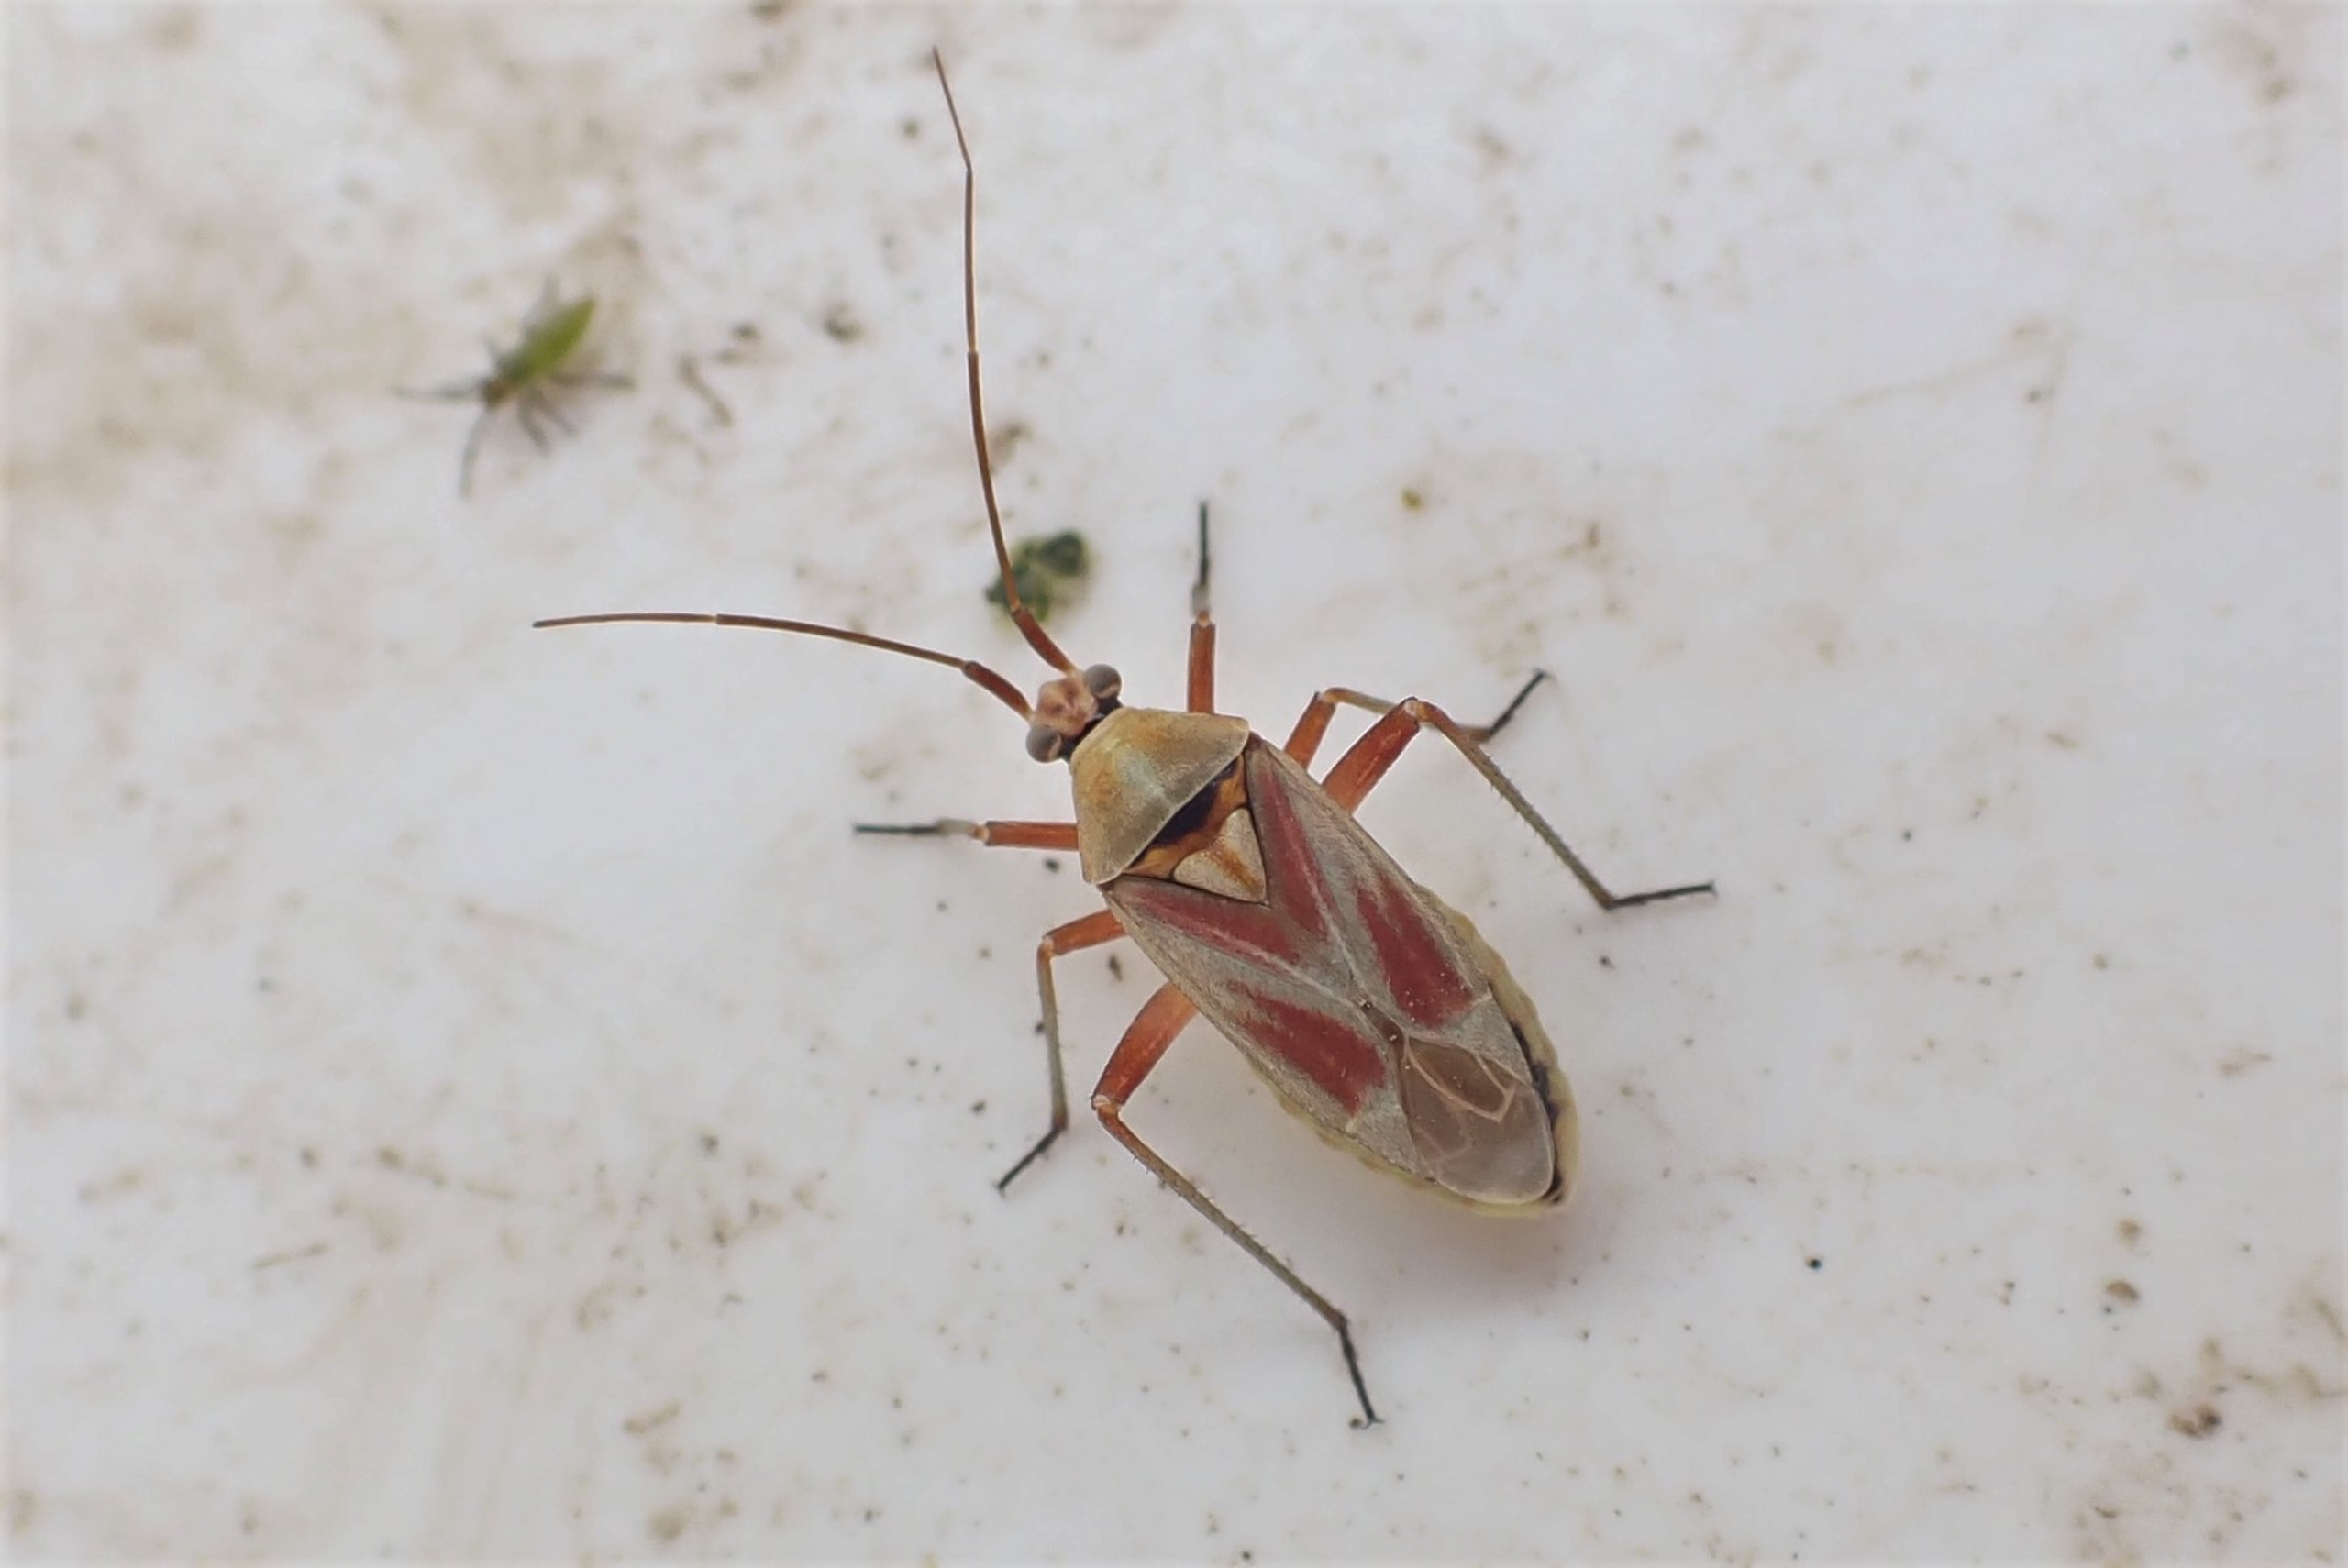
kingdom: Animalia
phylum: Arthropoda
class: Insecta
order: Hemiptera
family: Miridae
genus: Calocoris
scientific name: Calocoris roseomaculatus
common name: Rølliketæge
